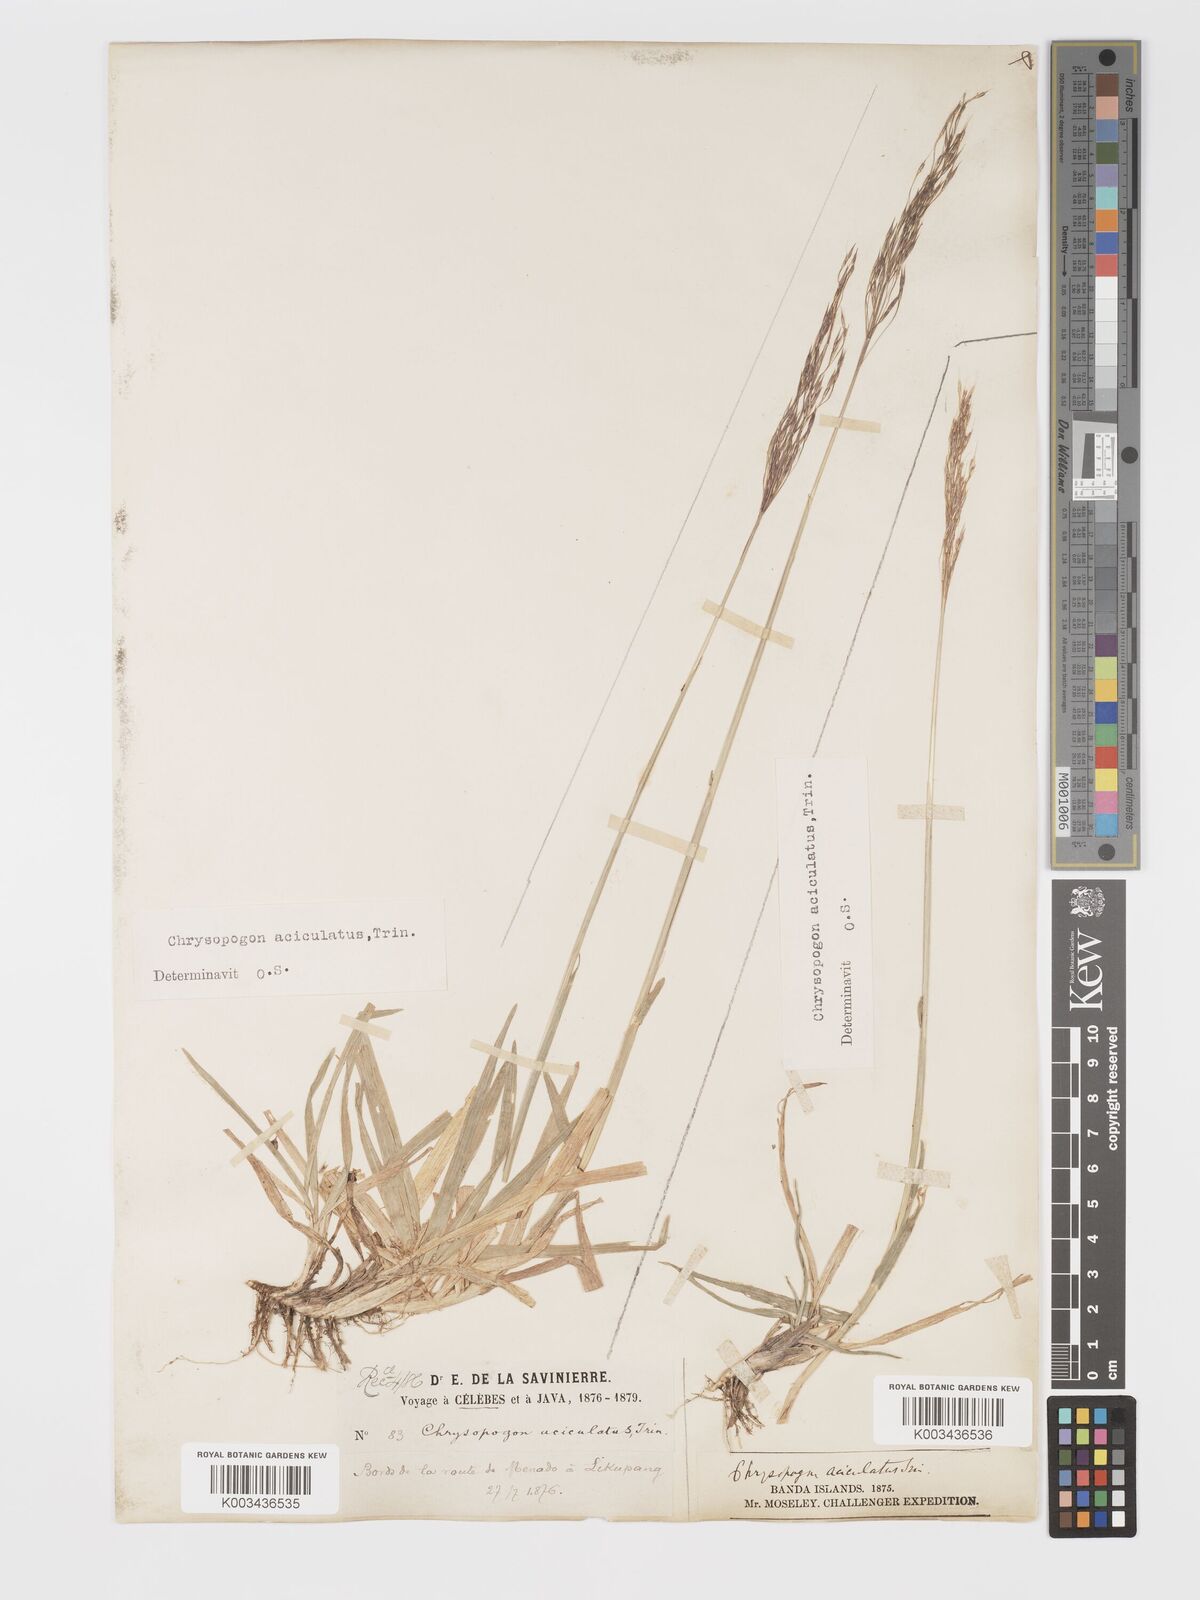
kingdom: Plantae
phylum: Tracheophyta
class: Liliopsida
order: Poales
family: Poaceae
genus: Chrysopogon
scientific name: Chrysopogon aciculatus
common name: Pilipiliula
